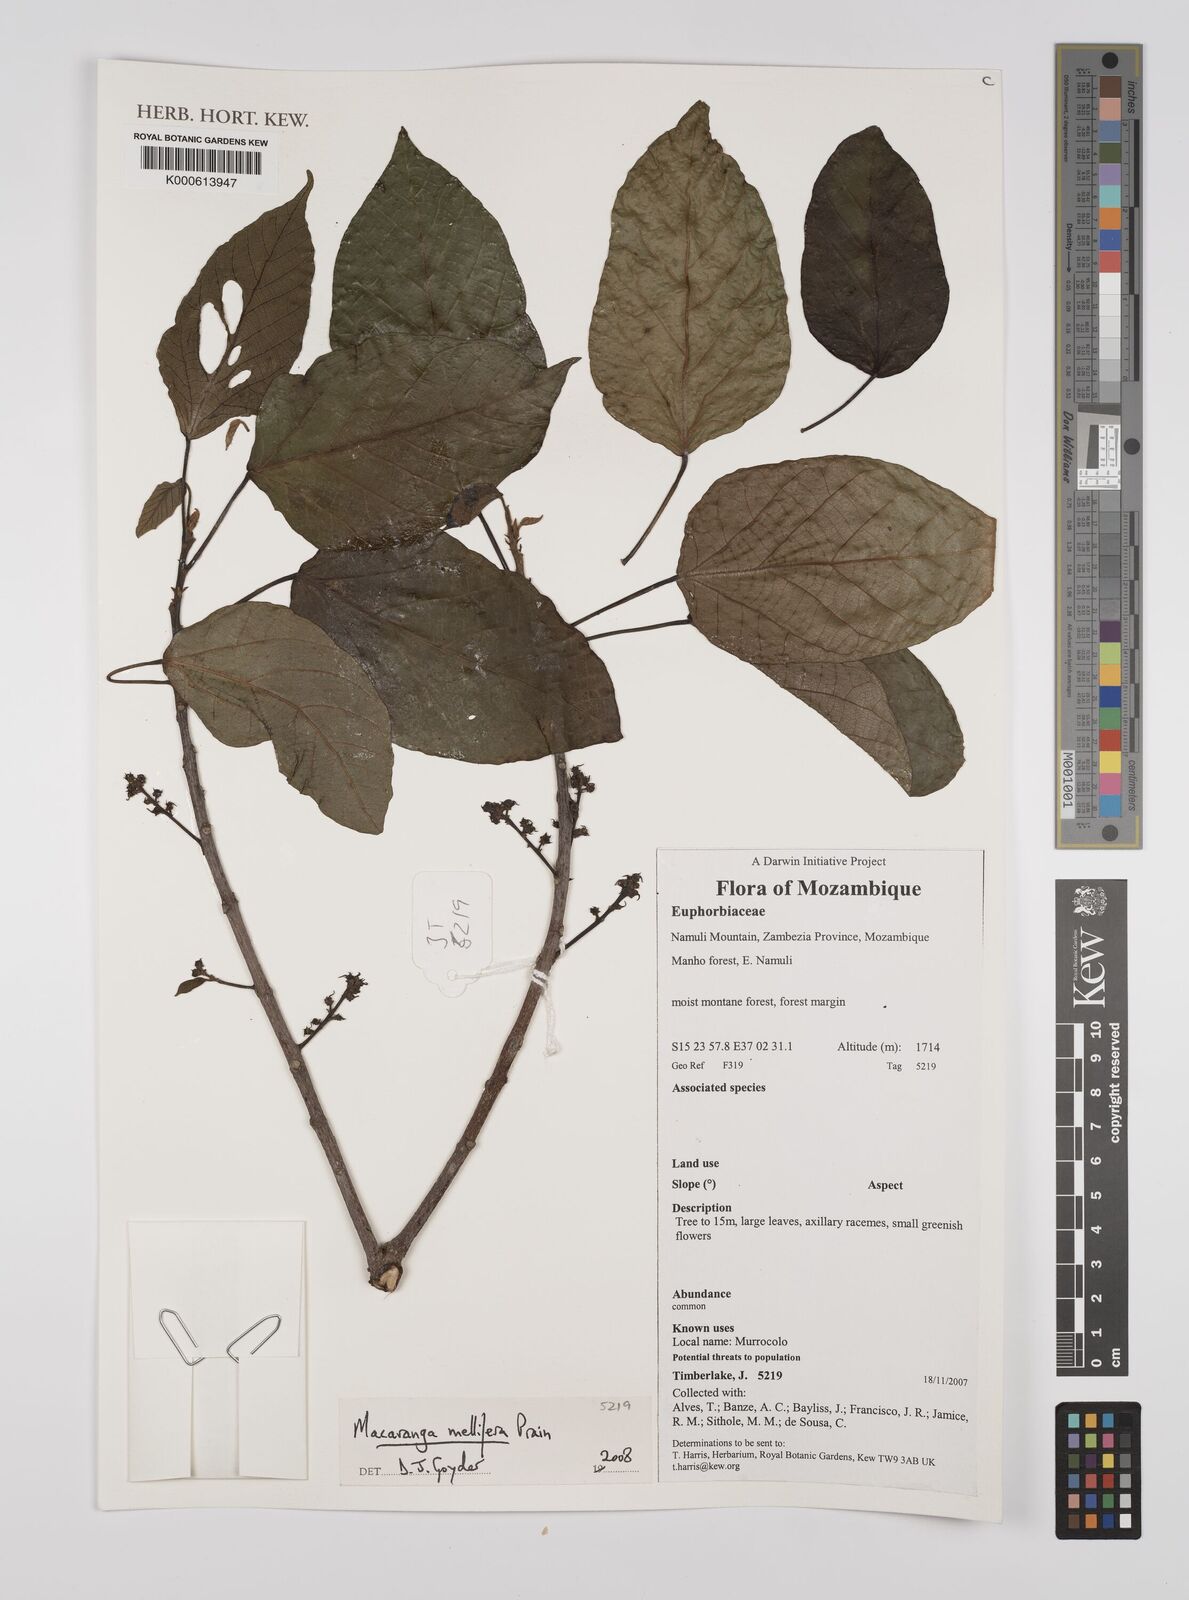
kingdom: Plantae
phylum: Tracheophyta
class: Magnoliopsida
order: Malpighiales
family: Euphorbiaceae
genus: Macaranga
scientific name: Macaranga mellifera
